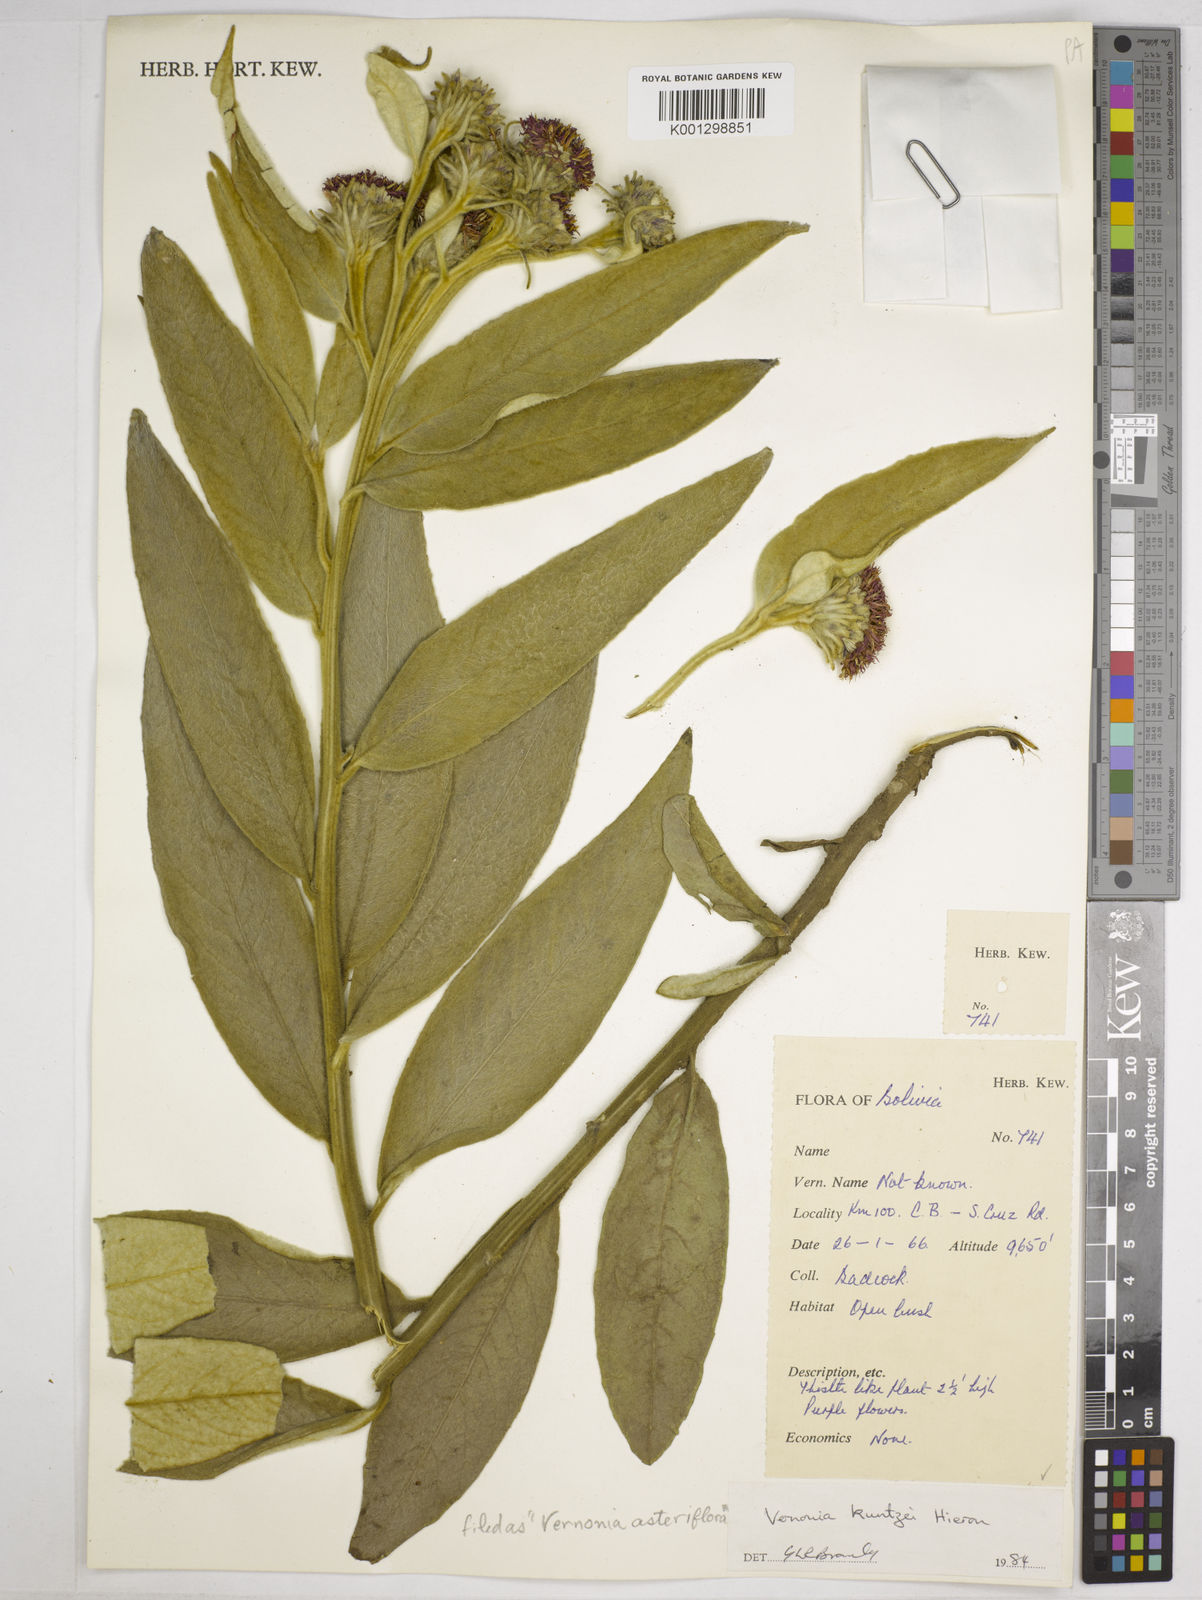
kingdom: Plantae
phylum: Tracheophyta
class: Magnoliopsida
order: Asterales
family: Asteraceae
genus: Lessingianthus
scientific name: Lessingianthus asteriflorus
